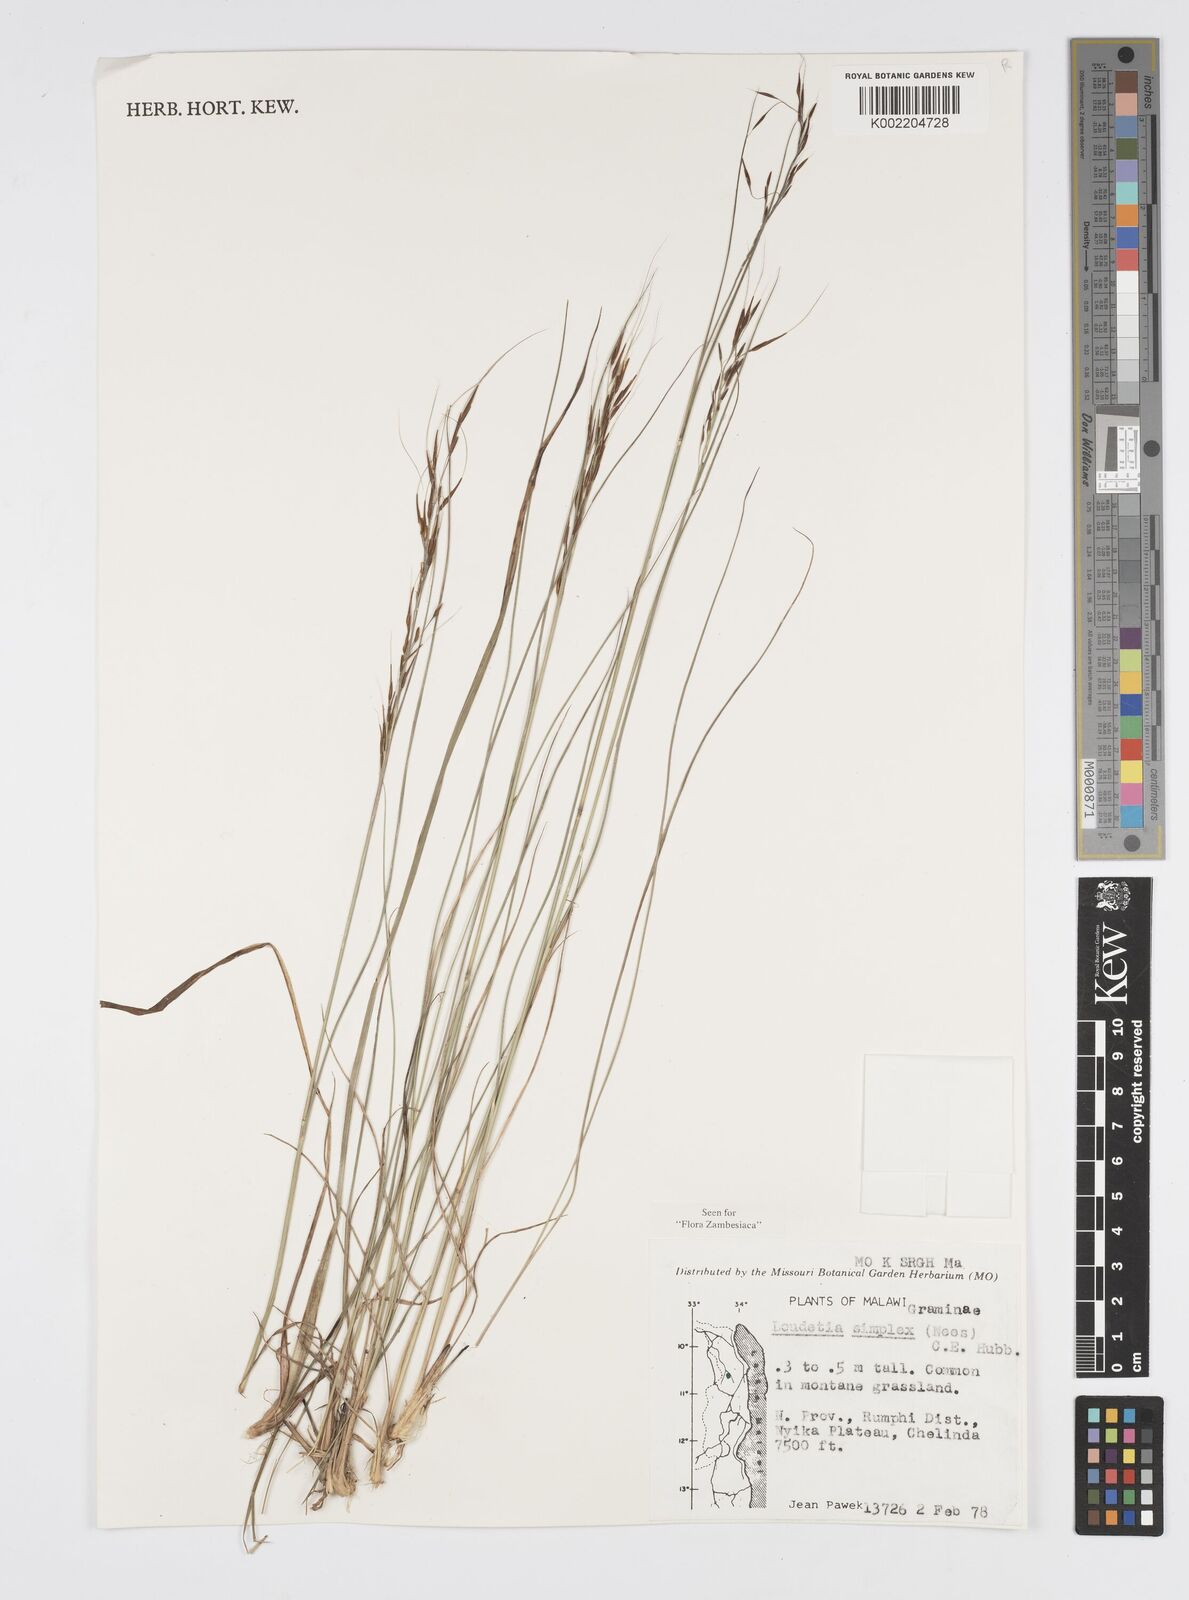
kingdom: Plantae
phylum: Tracheophyta
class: Liliopsida
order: Poales
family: Poaceae
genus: Loudetia
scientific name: Loudetia simplex
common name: Common russet grass
